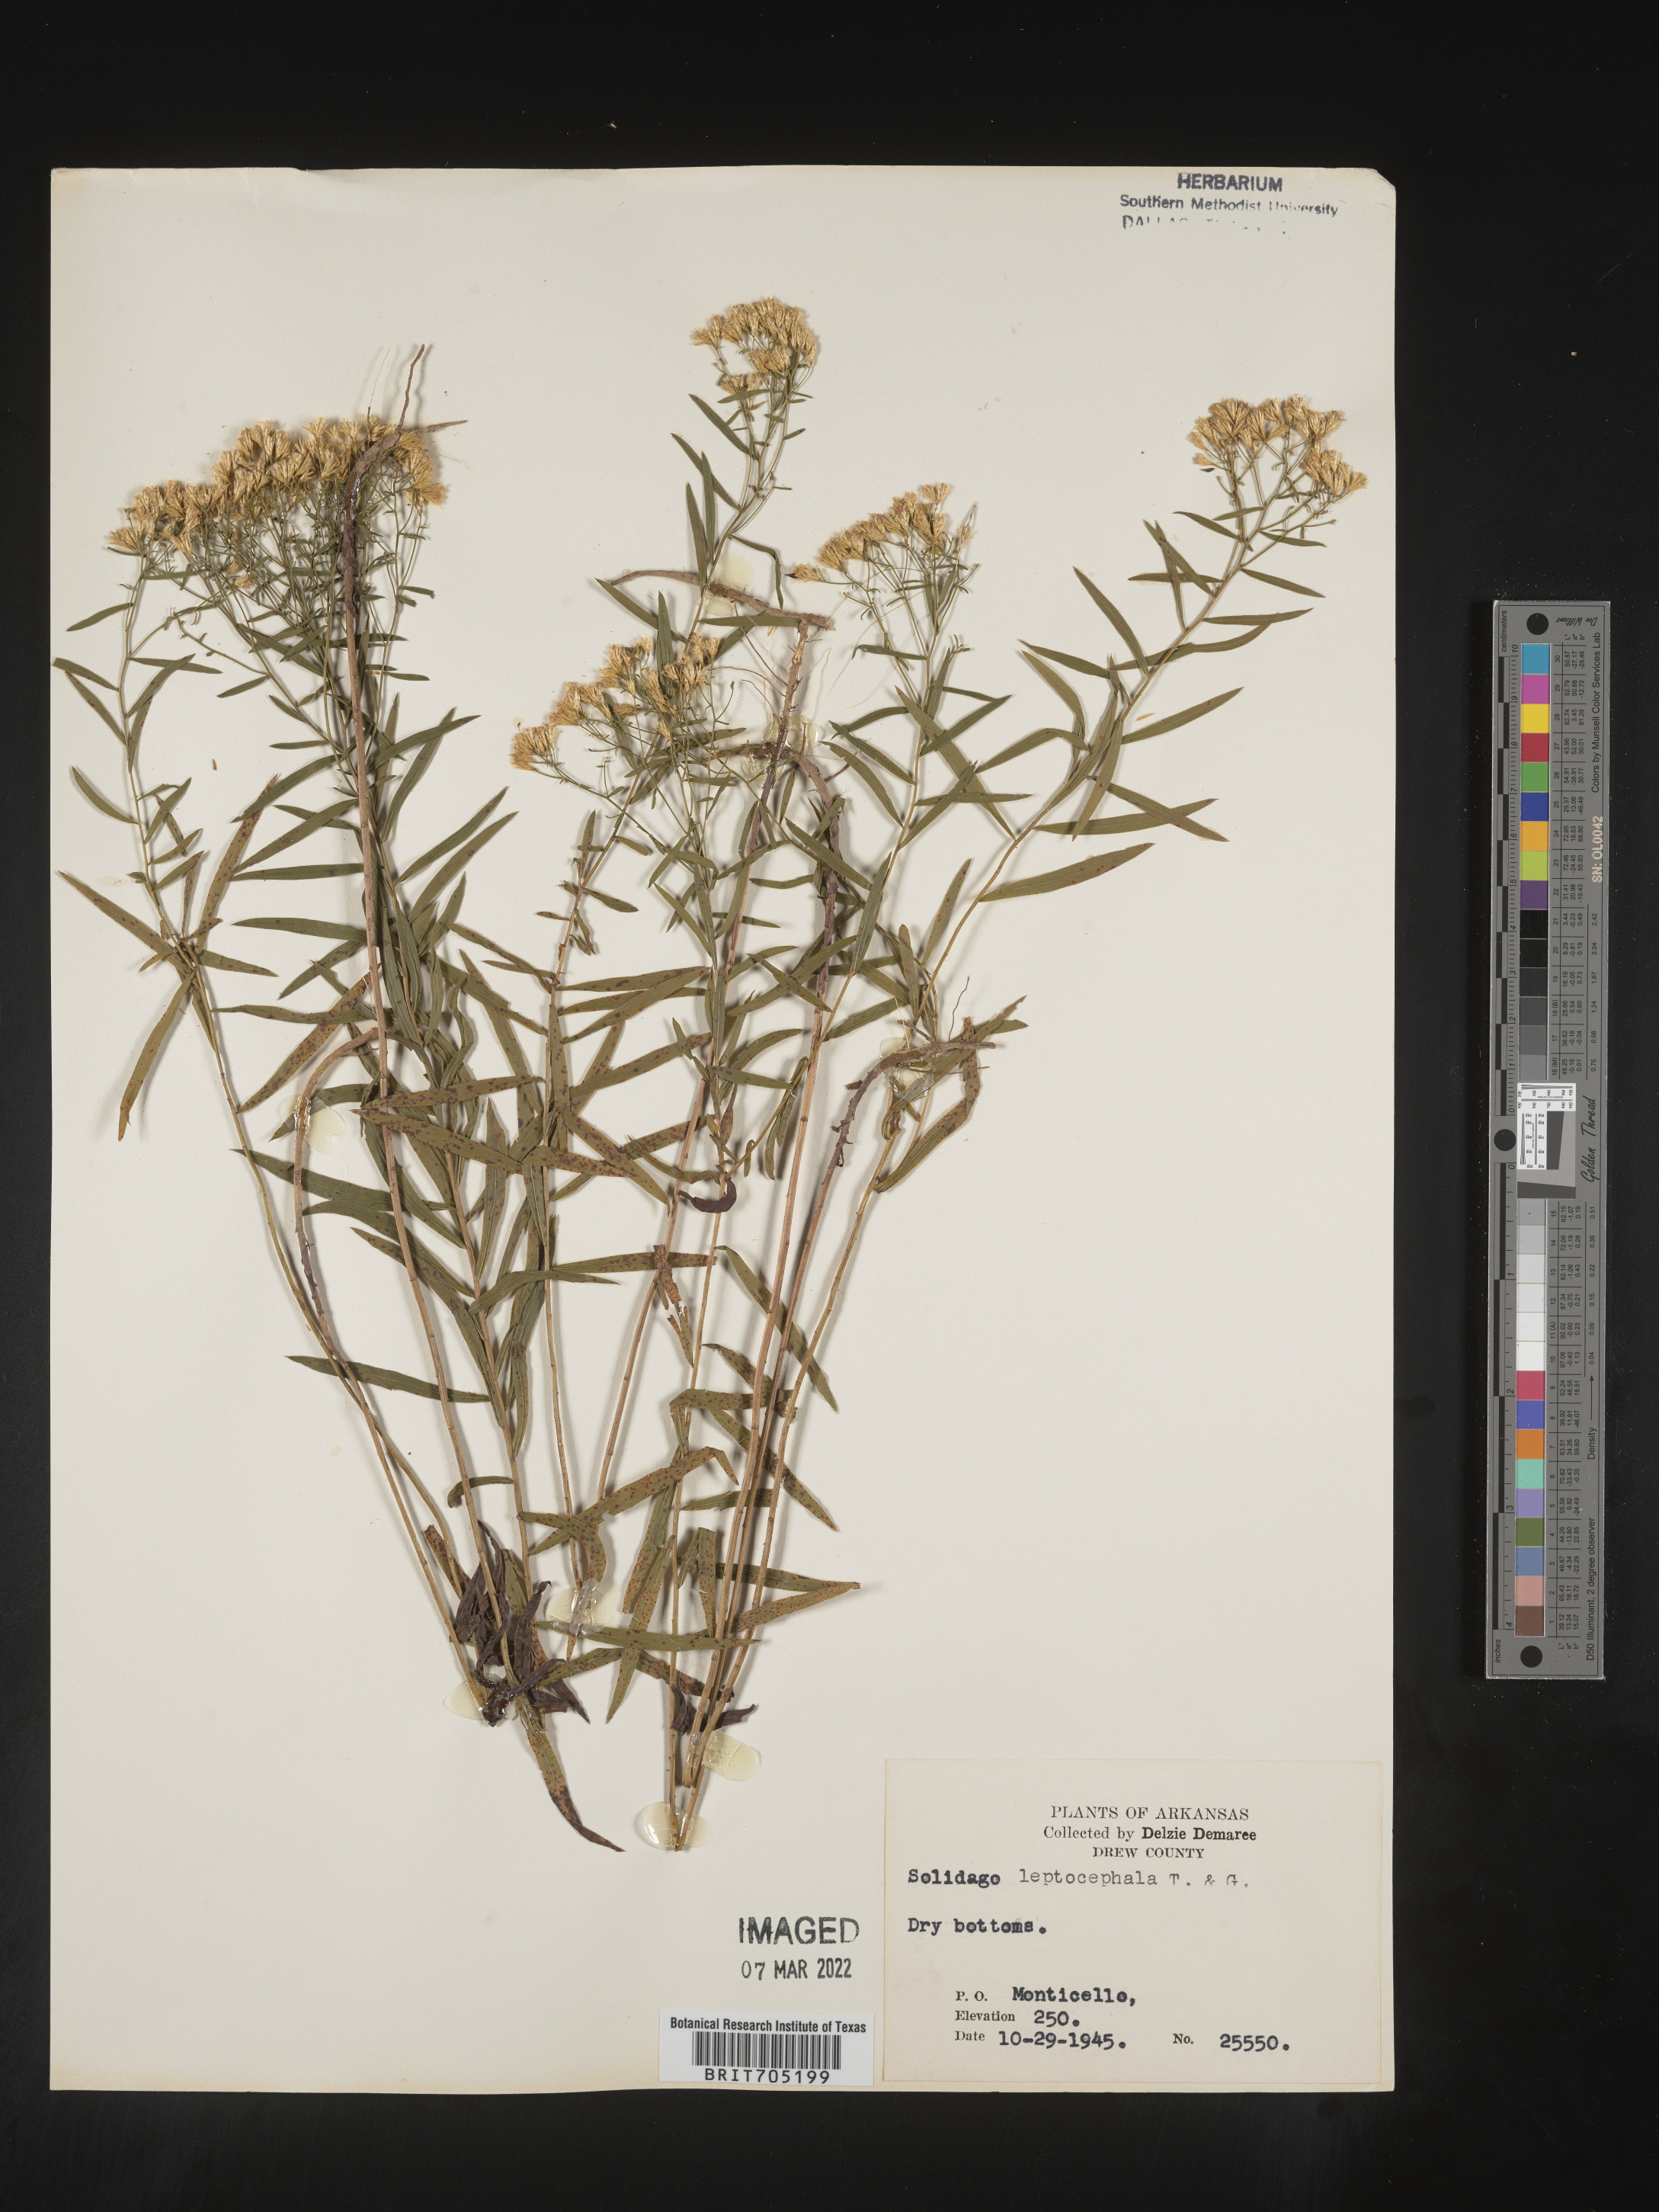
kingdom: Plantae
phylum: Tracheophyta
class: Magnoliopsida
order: Asterales
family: Asteraceae
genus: Euthamia
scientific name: Euthamia leptocephala
